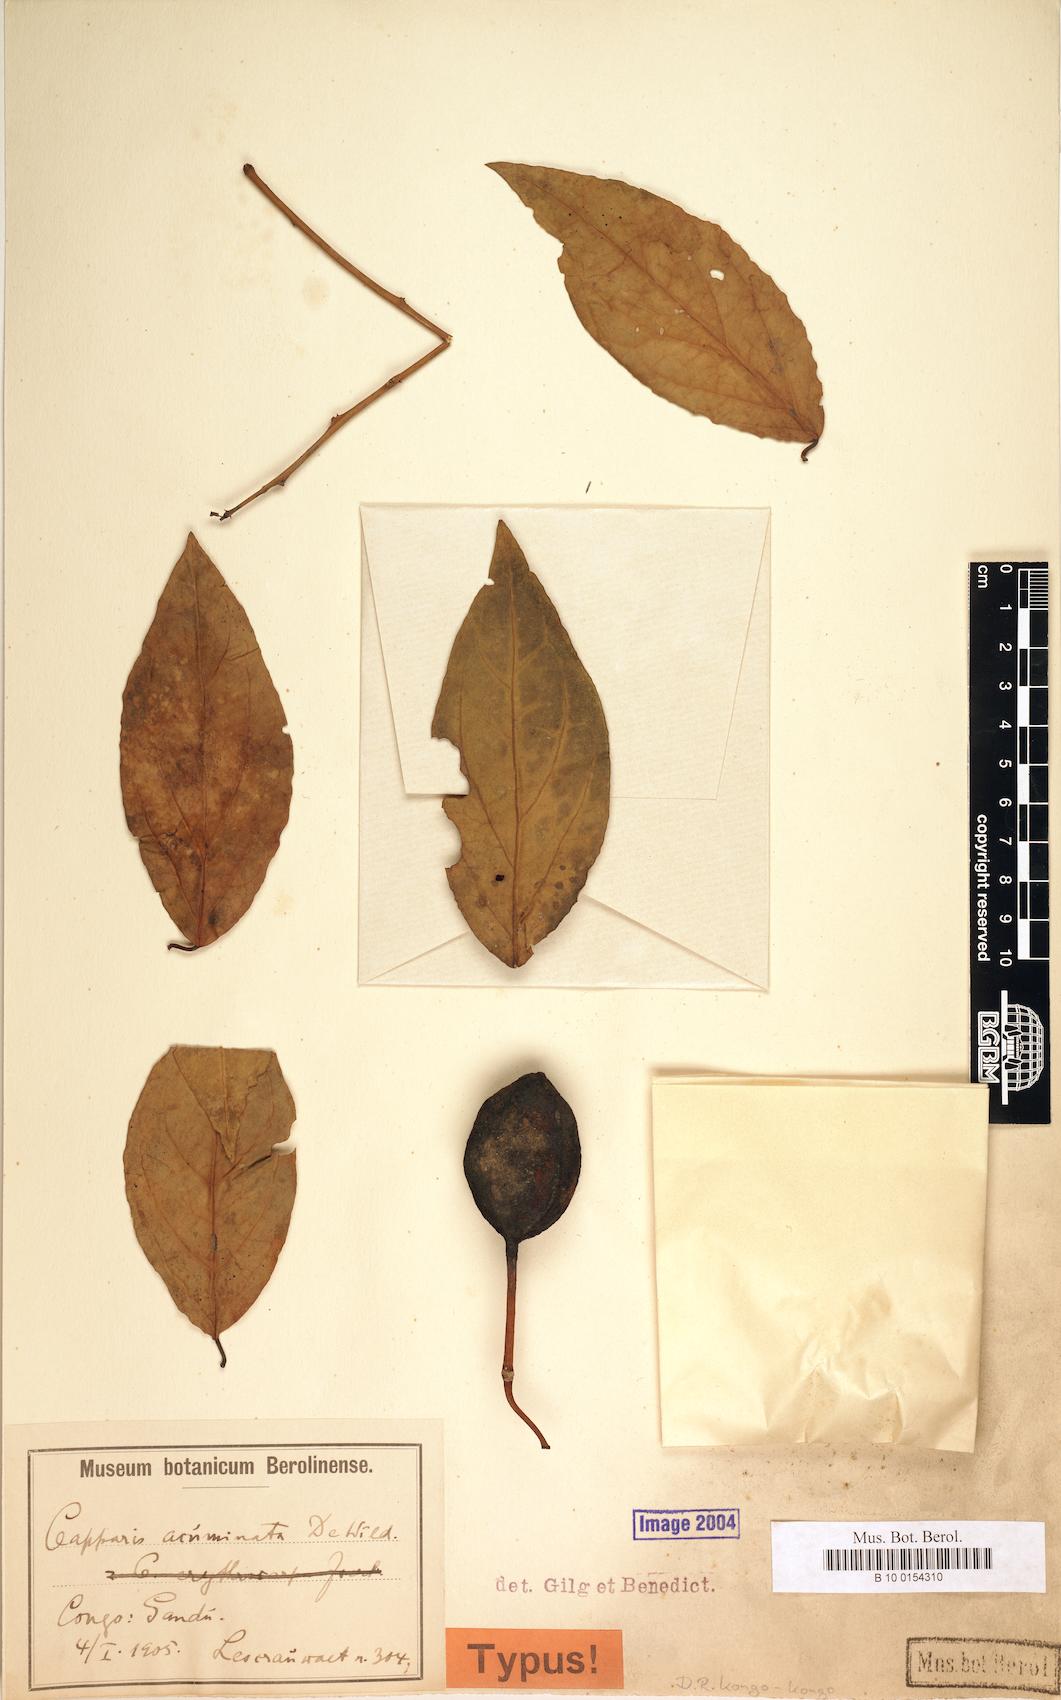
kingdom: Plantae
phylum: Tracheophyta
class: Magnoliopsida
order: Brassicales
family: Capparaceae
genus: Capparis
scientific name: Capparis erythrocarpos
